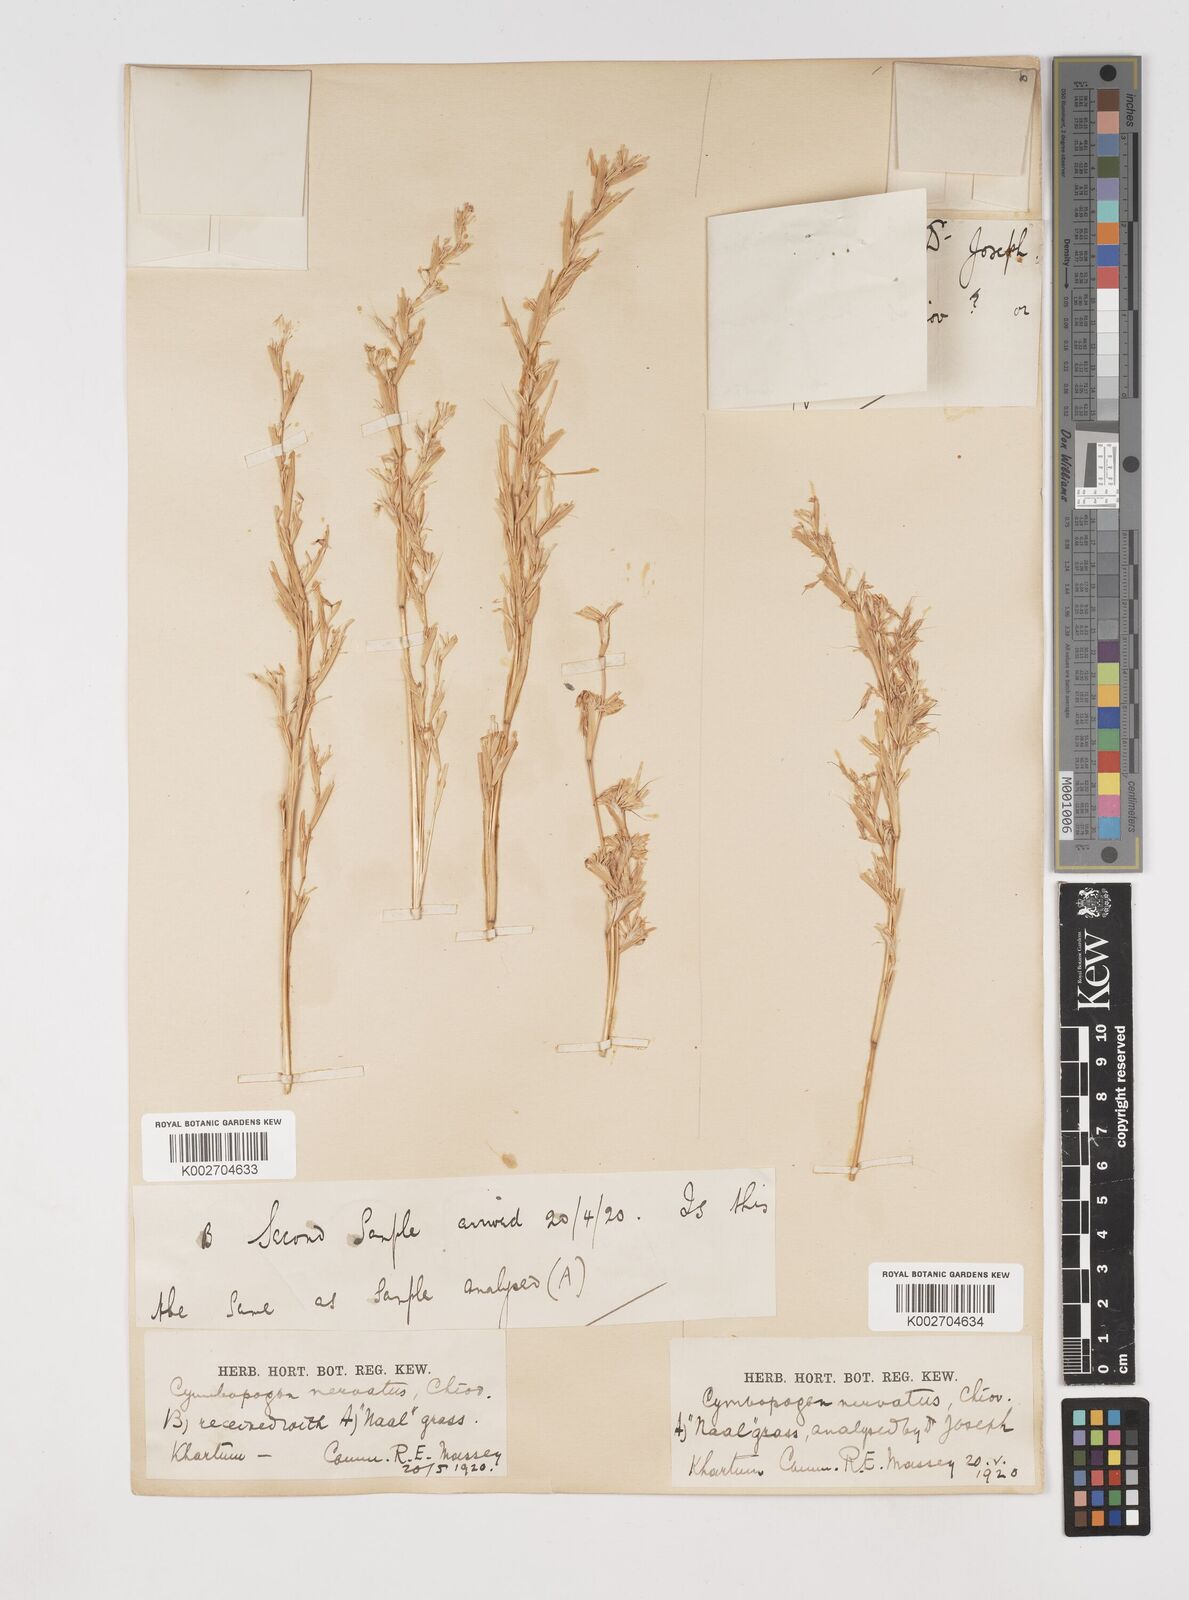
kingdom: Plantae
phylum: Tracheophyta
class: Liliopsida
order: Poales
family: Poaceae
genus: Cymbopogon
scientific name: Cymbopogon nervatus
